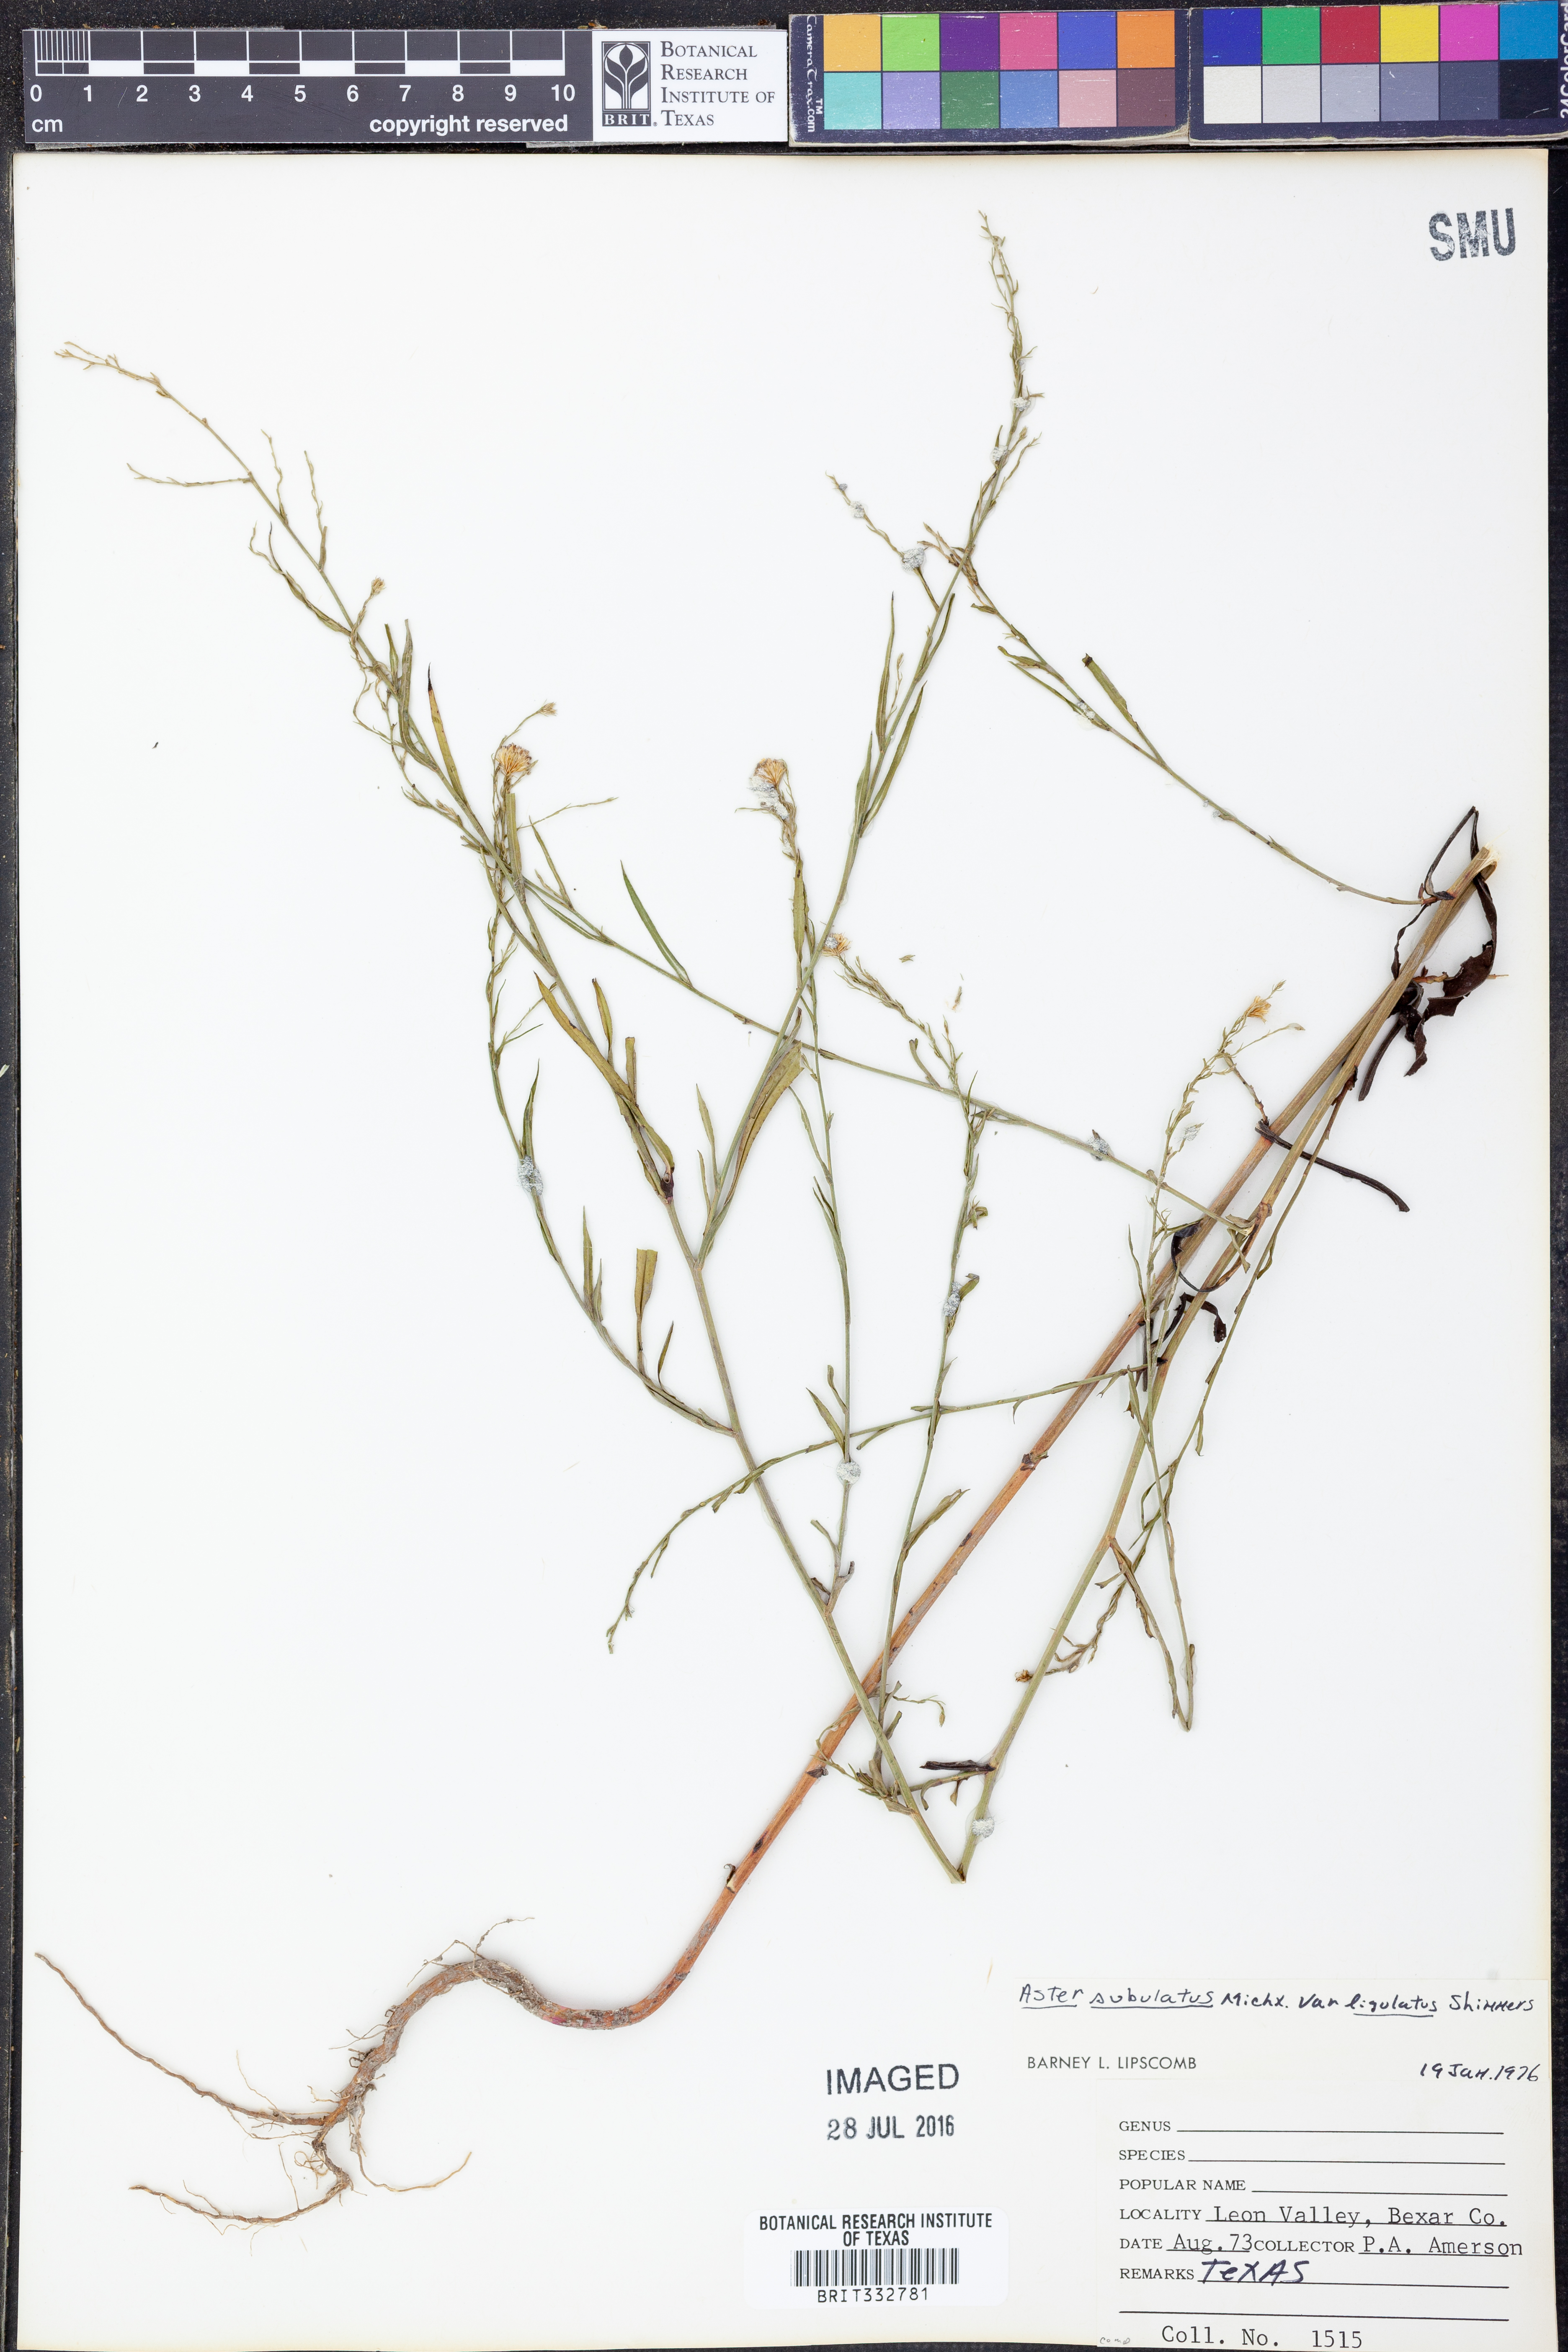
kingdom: Plantae
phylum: Tracheophyta
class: Magnoliopsida
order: Asterales
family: Asteraceae
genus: Symphyotrichum
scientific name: Symphyotrichum divaricatum
